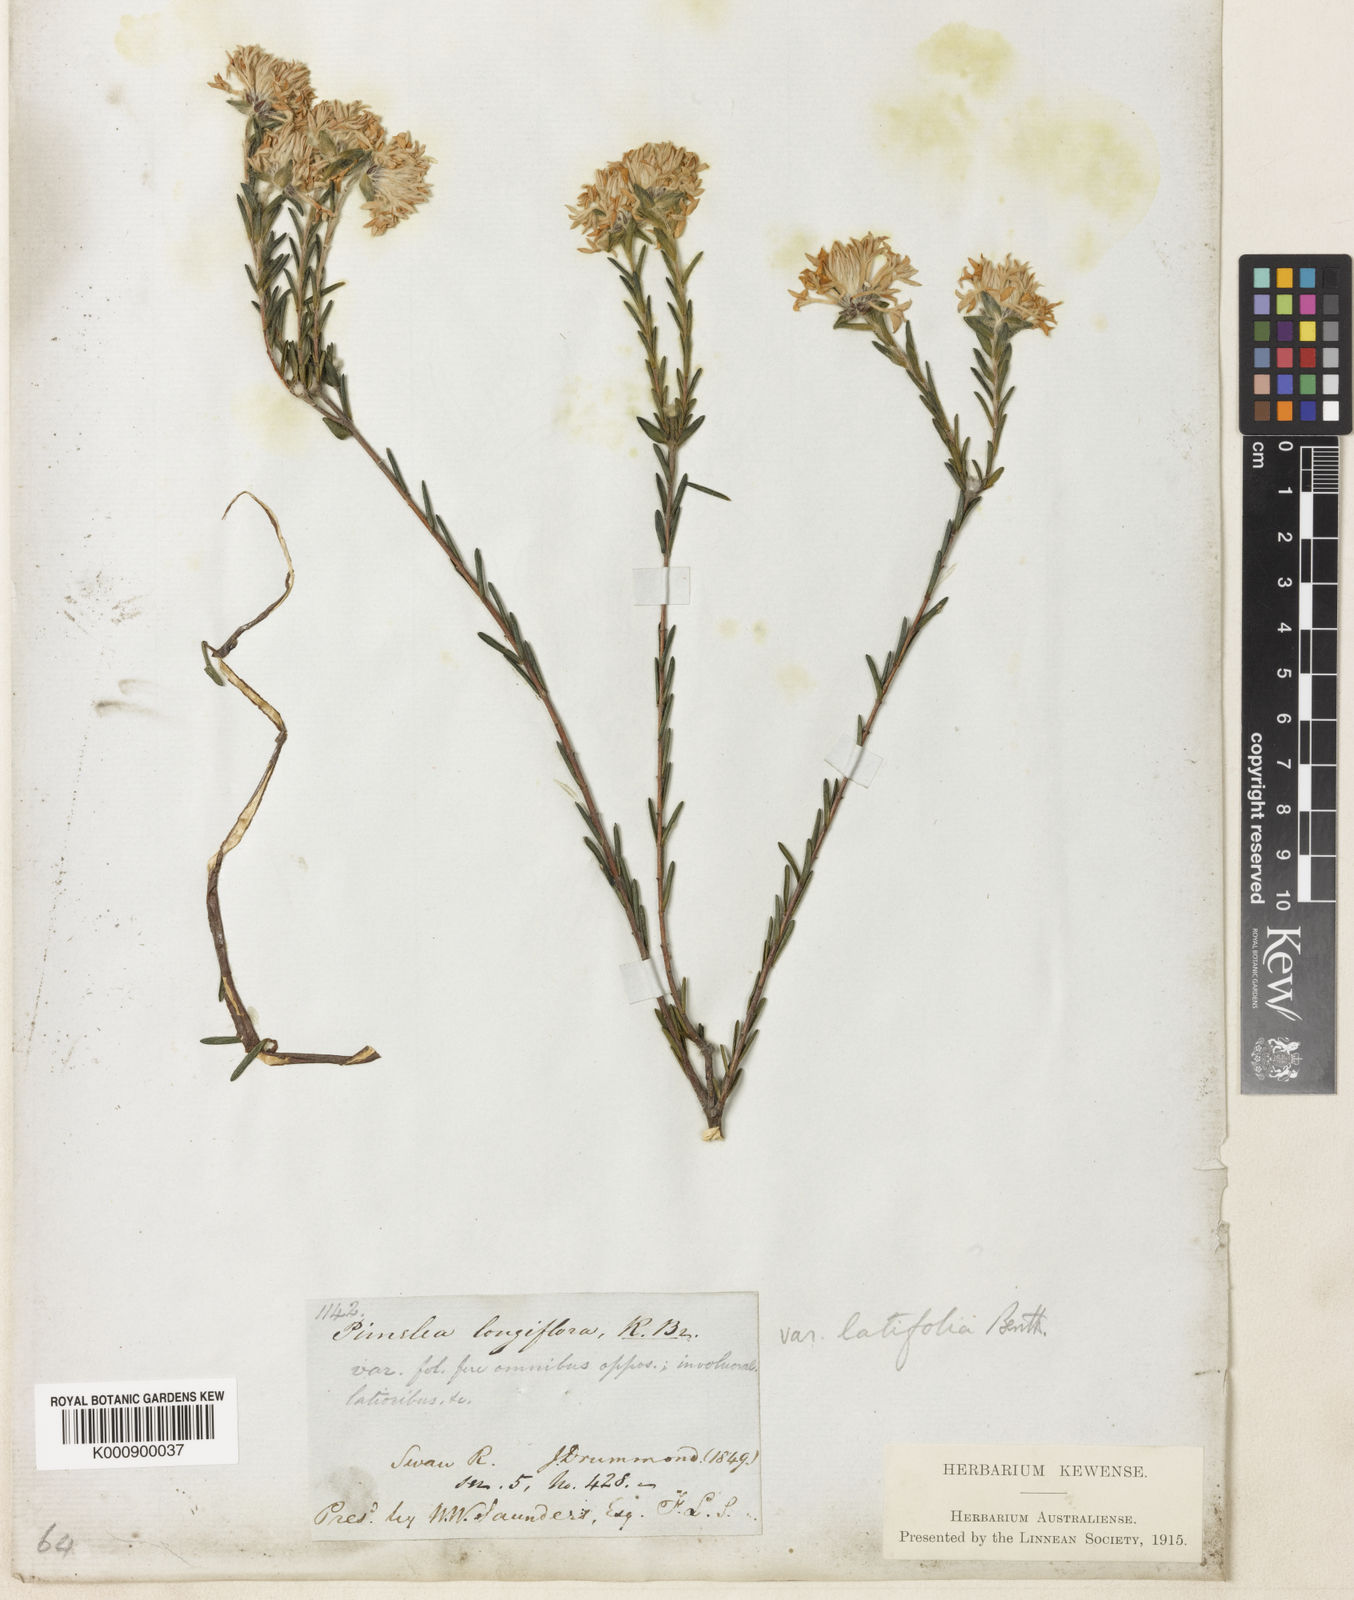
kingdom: Plantae
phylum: Tracheophyta
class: Magnoliopsida
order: Malvales
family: Thymelaeaceae
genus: Pimelea
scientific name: Pimelea longiflora
